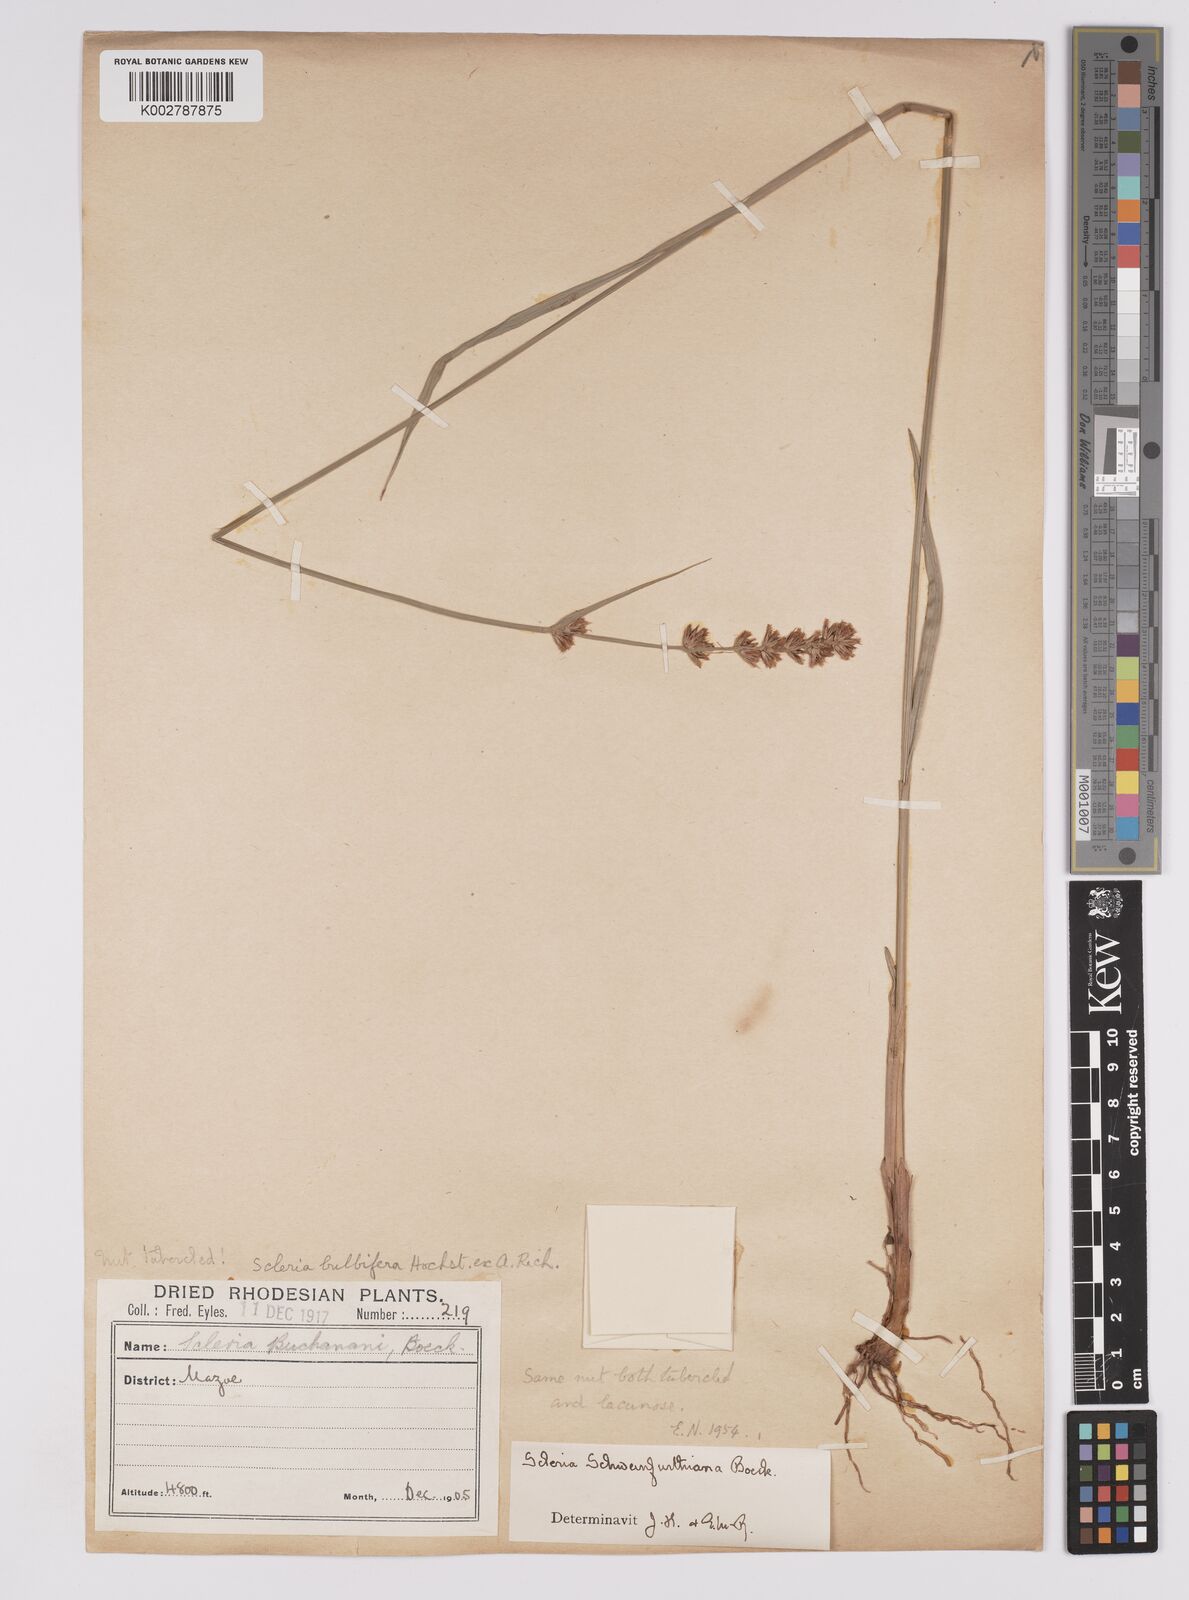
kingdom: Plantae
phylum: Tracheophyta
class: Liliopsida
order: Poales
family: Cyperaceae
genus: Scleria
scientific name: Scleria bulbifera
